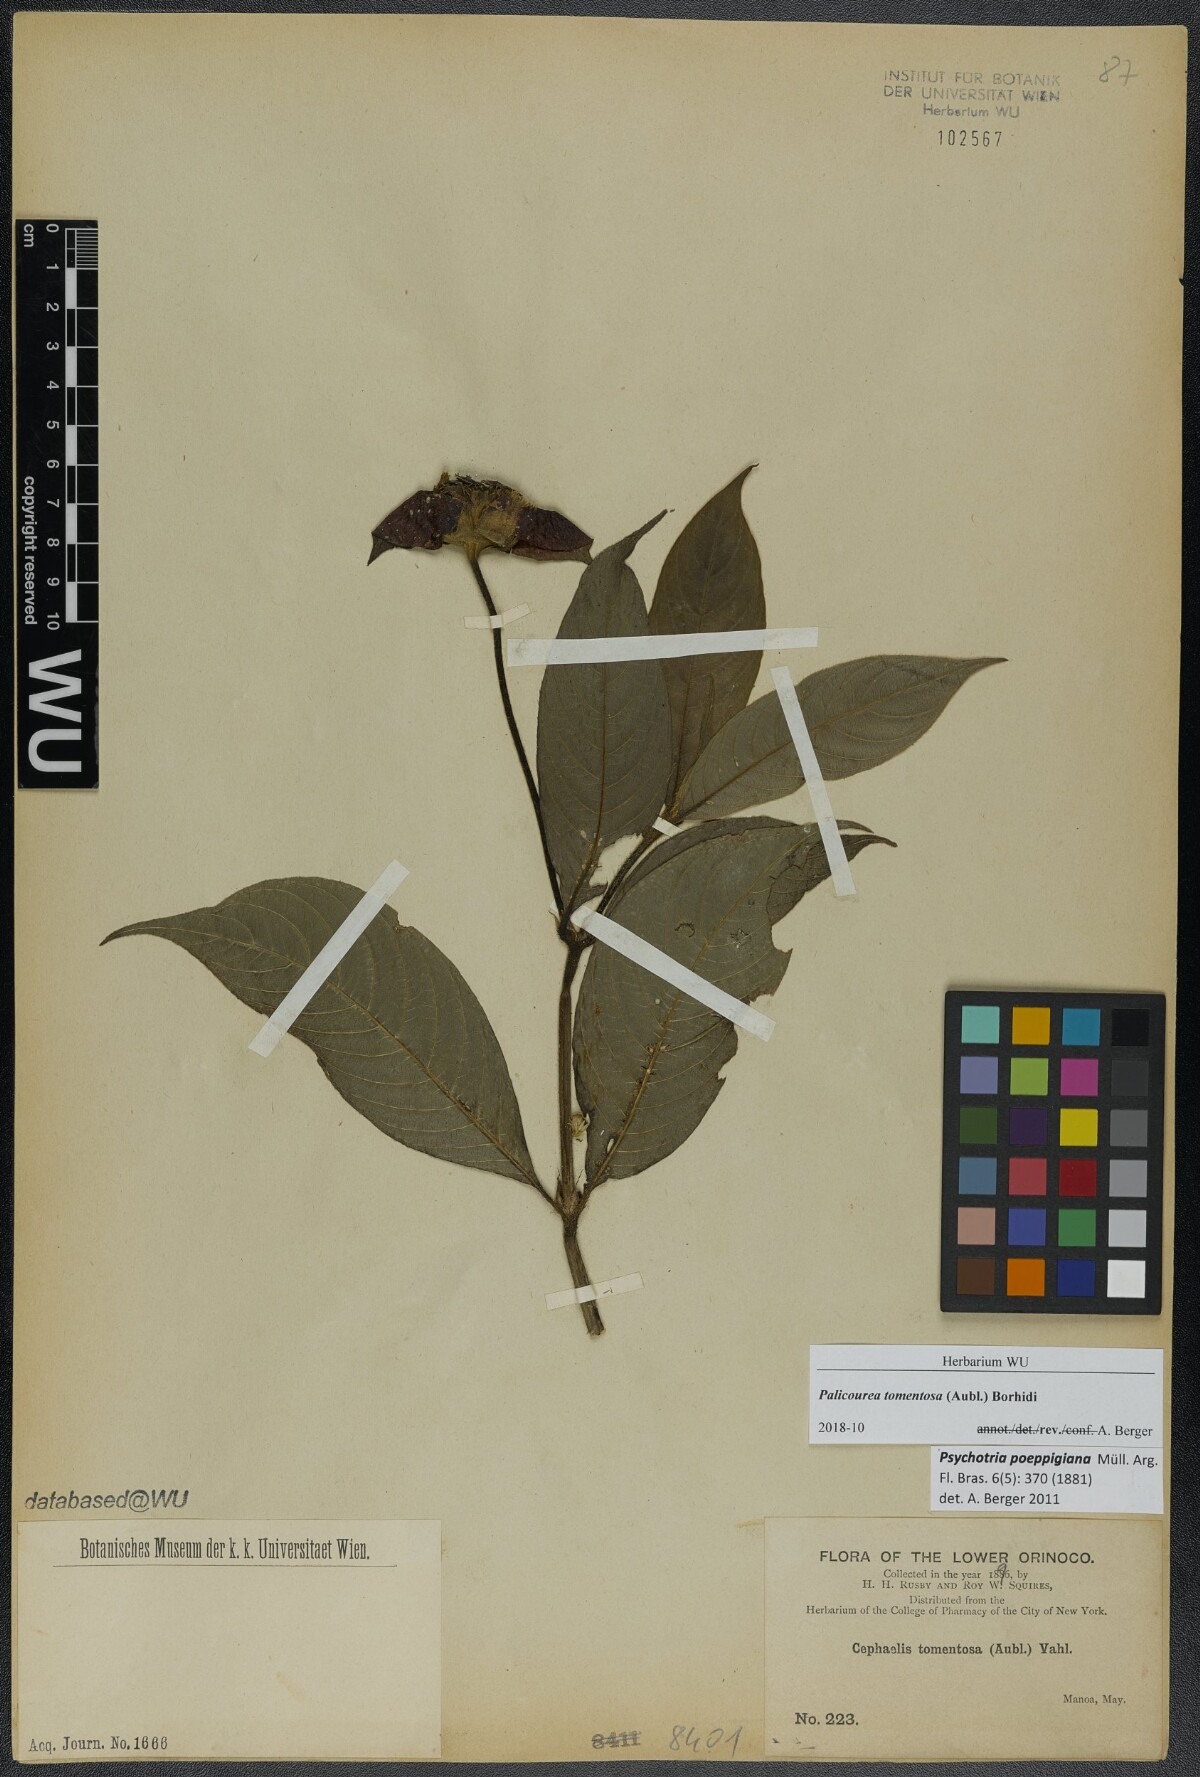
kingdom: Plantae
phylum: Tracheophyta
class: Magnoliopsida
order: Gentianales
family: Rubiaceae
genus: Palicourea
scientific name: Palicourea tomentosa
